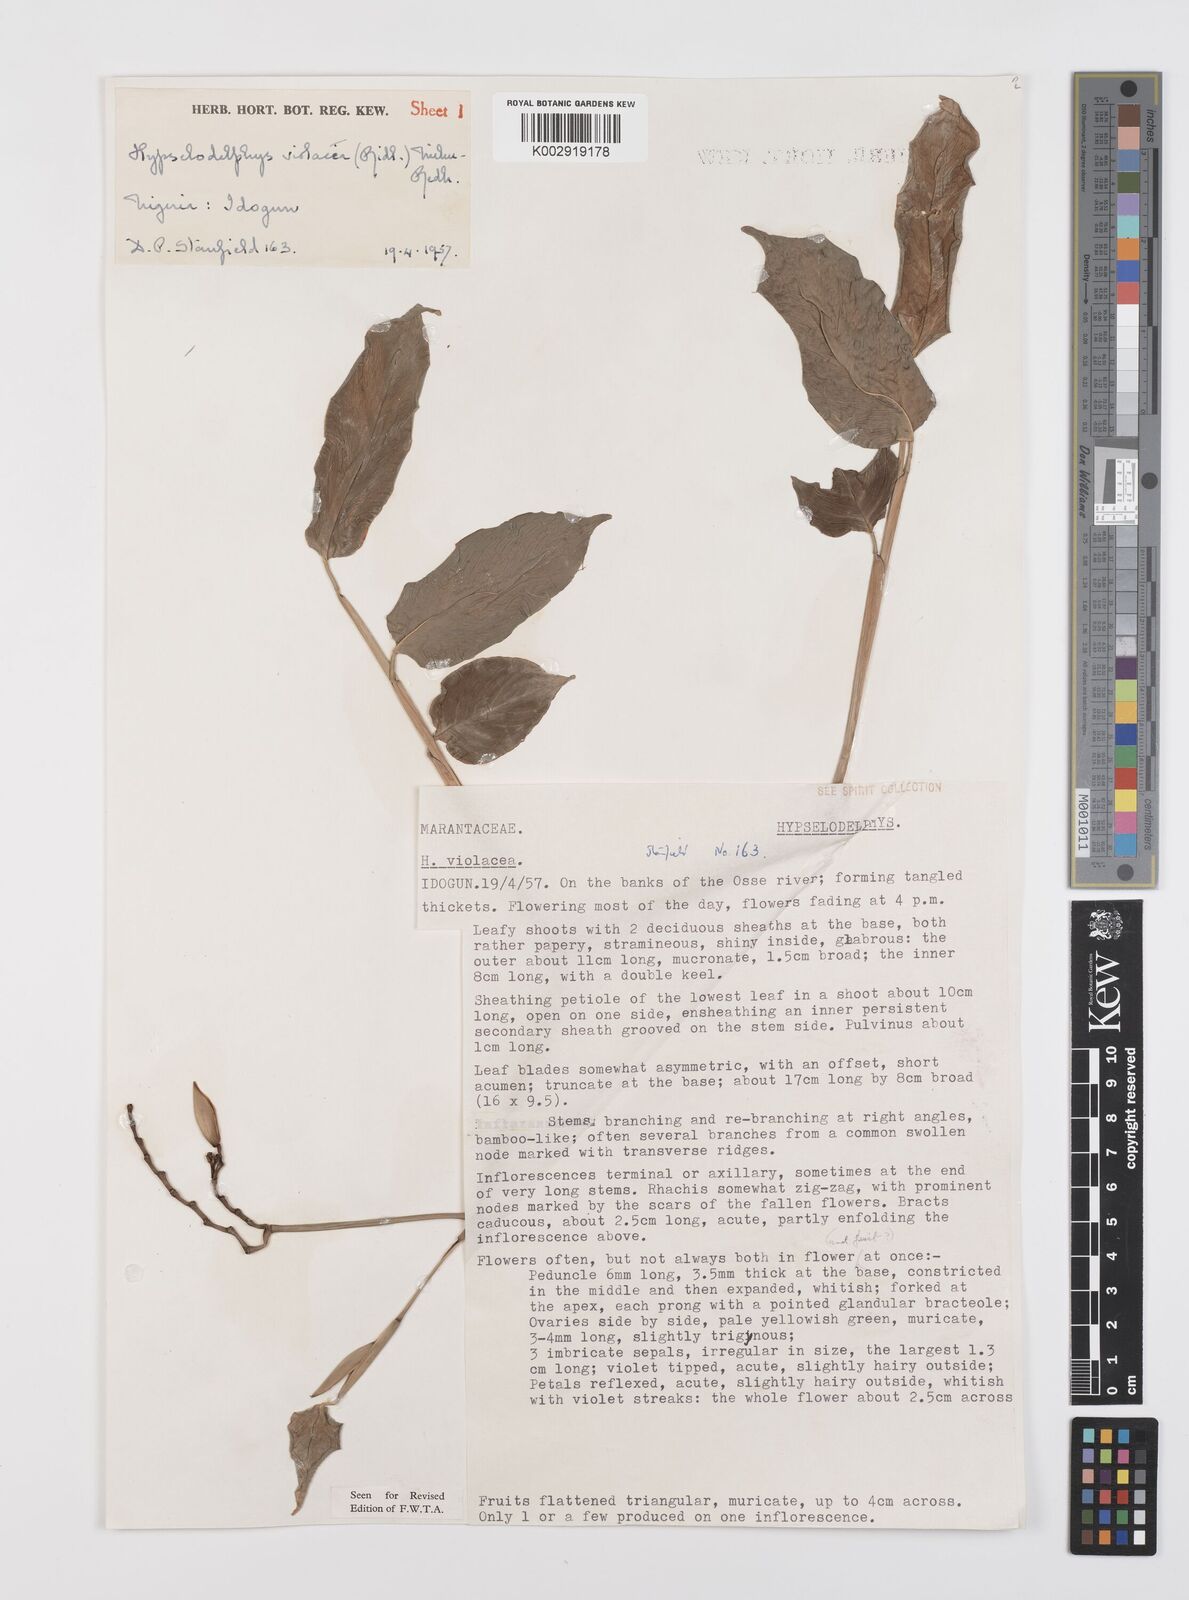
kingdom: Plantae
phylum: Tracheophyta
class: Liliopsida
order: Zingiberales
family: Marantaceae
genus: Hypselodelphys
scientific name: Hypselodelphys violacea
